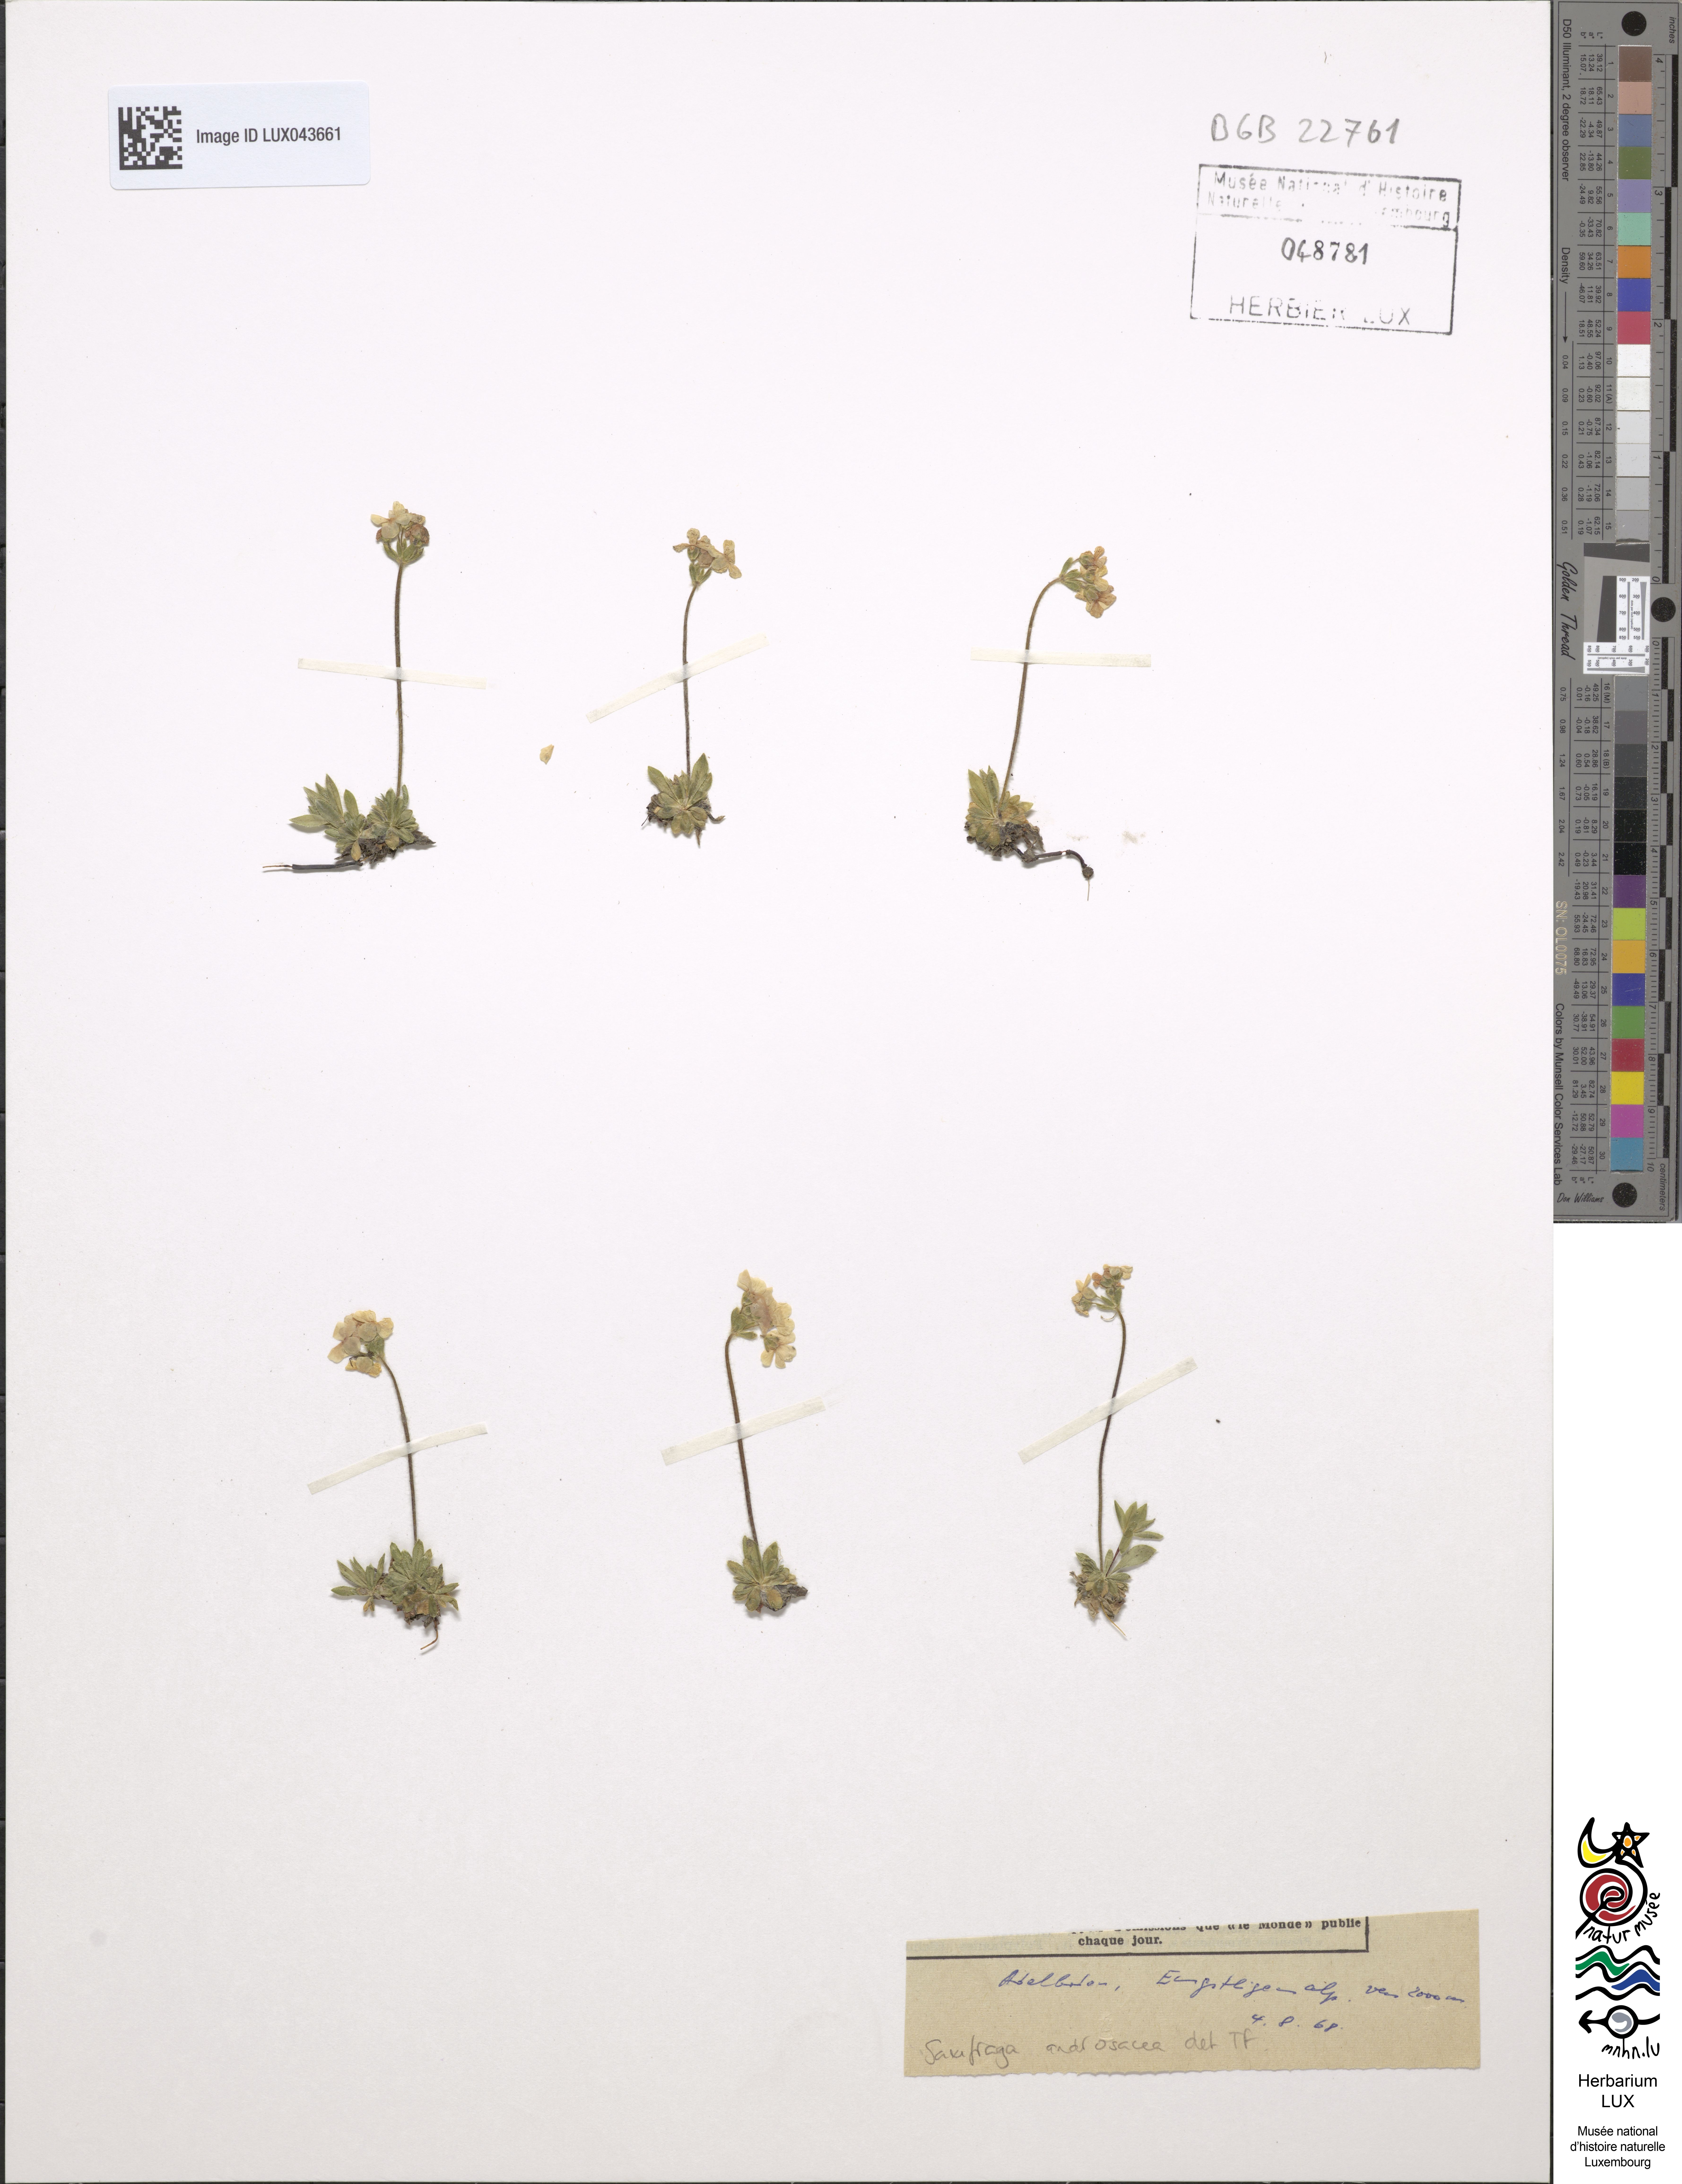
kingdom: Plantae
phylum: Tracheophyta
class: Magnoliopsida
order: Saxifragales
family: Saxifragaceae
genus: Saxifraga
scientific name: Saxifraga androsacea
